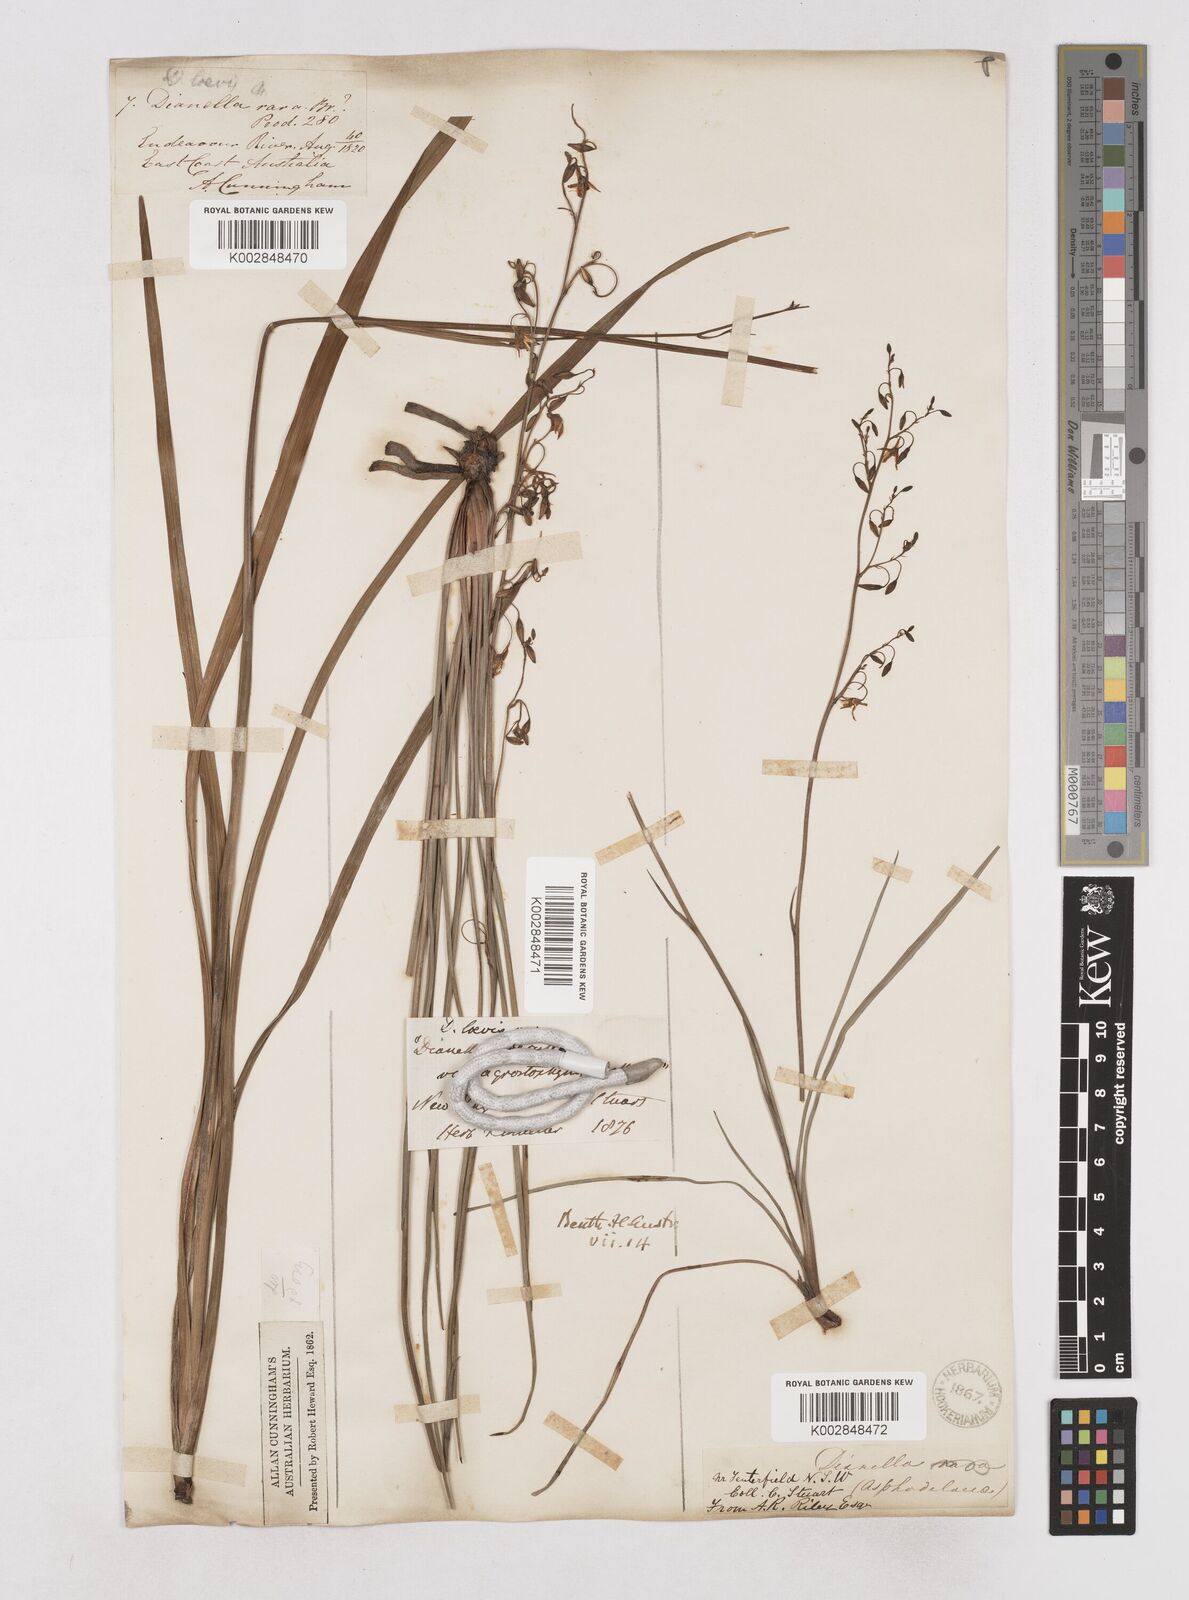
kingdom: Plantae
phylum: Tracheophyta
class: Liliopsida
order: Asparagales
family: Asphodelaceae
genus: Dianella
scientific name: Dianella longifolia
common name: Blue flax-lily
